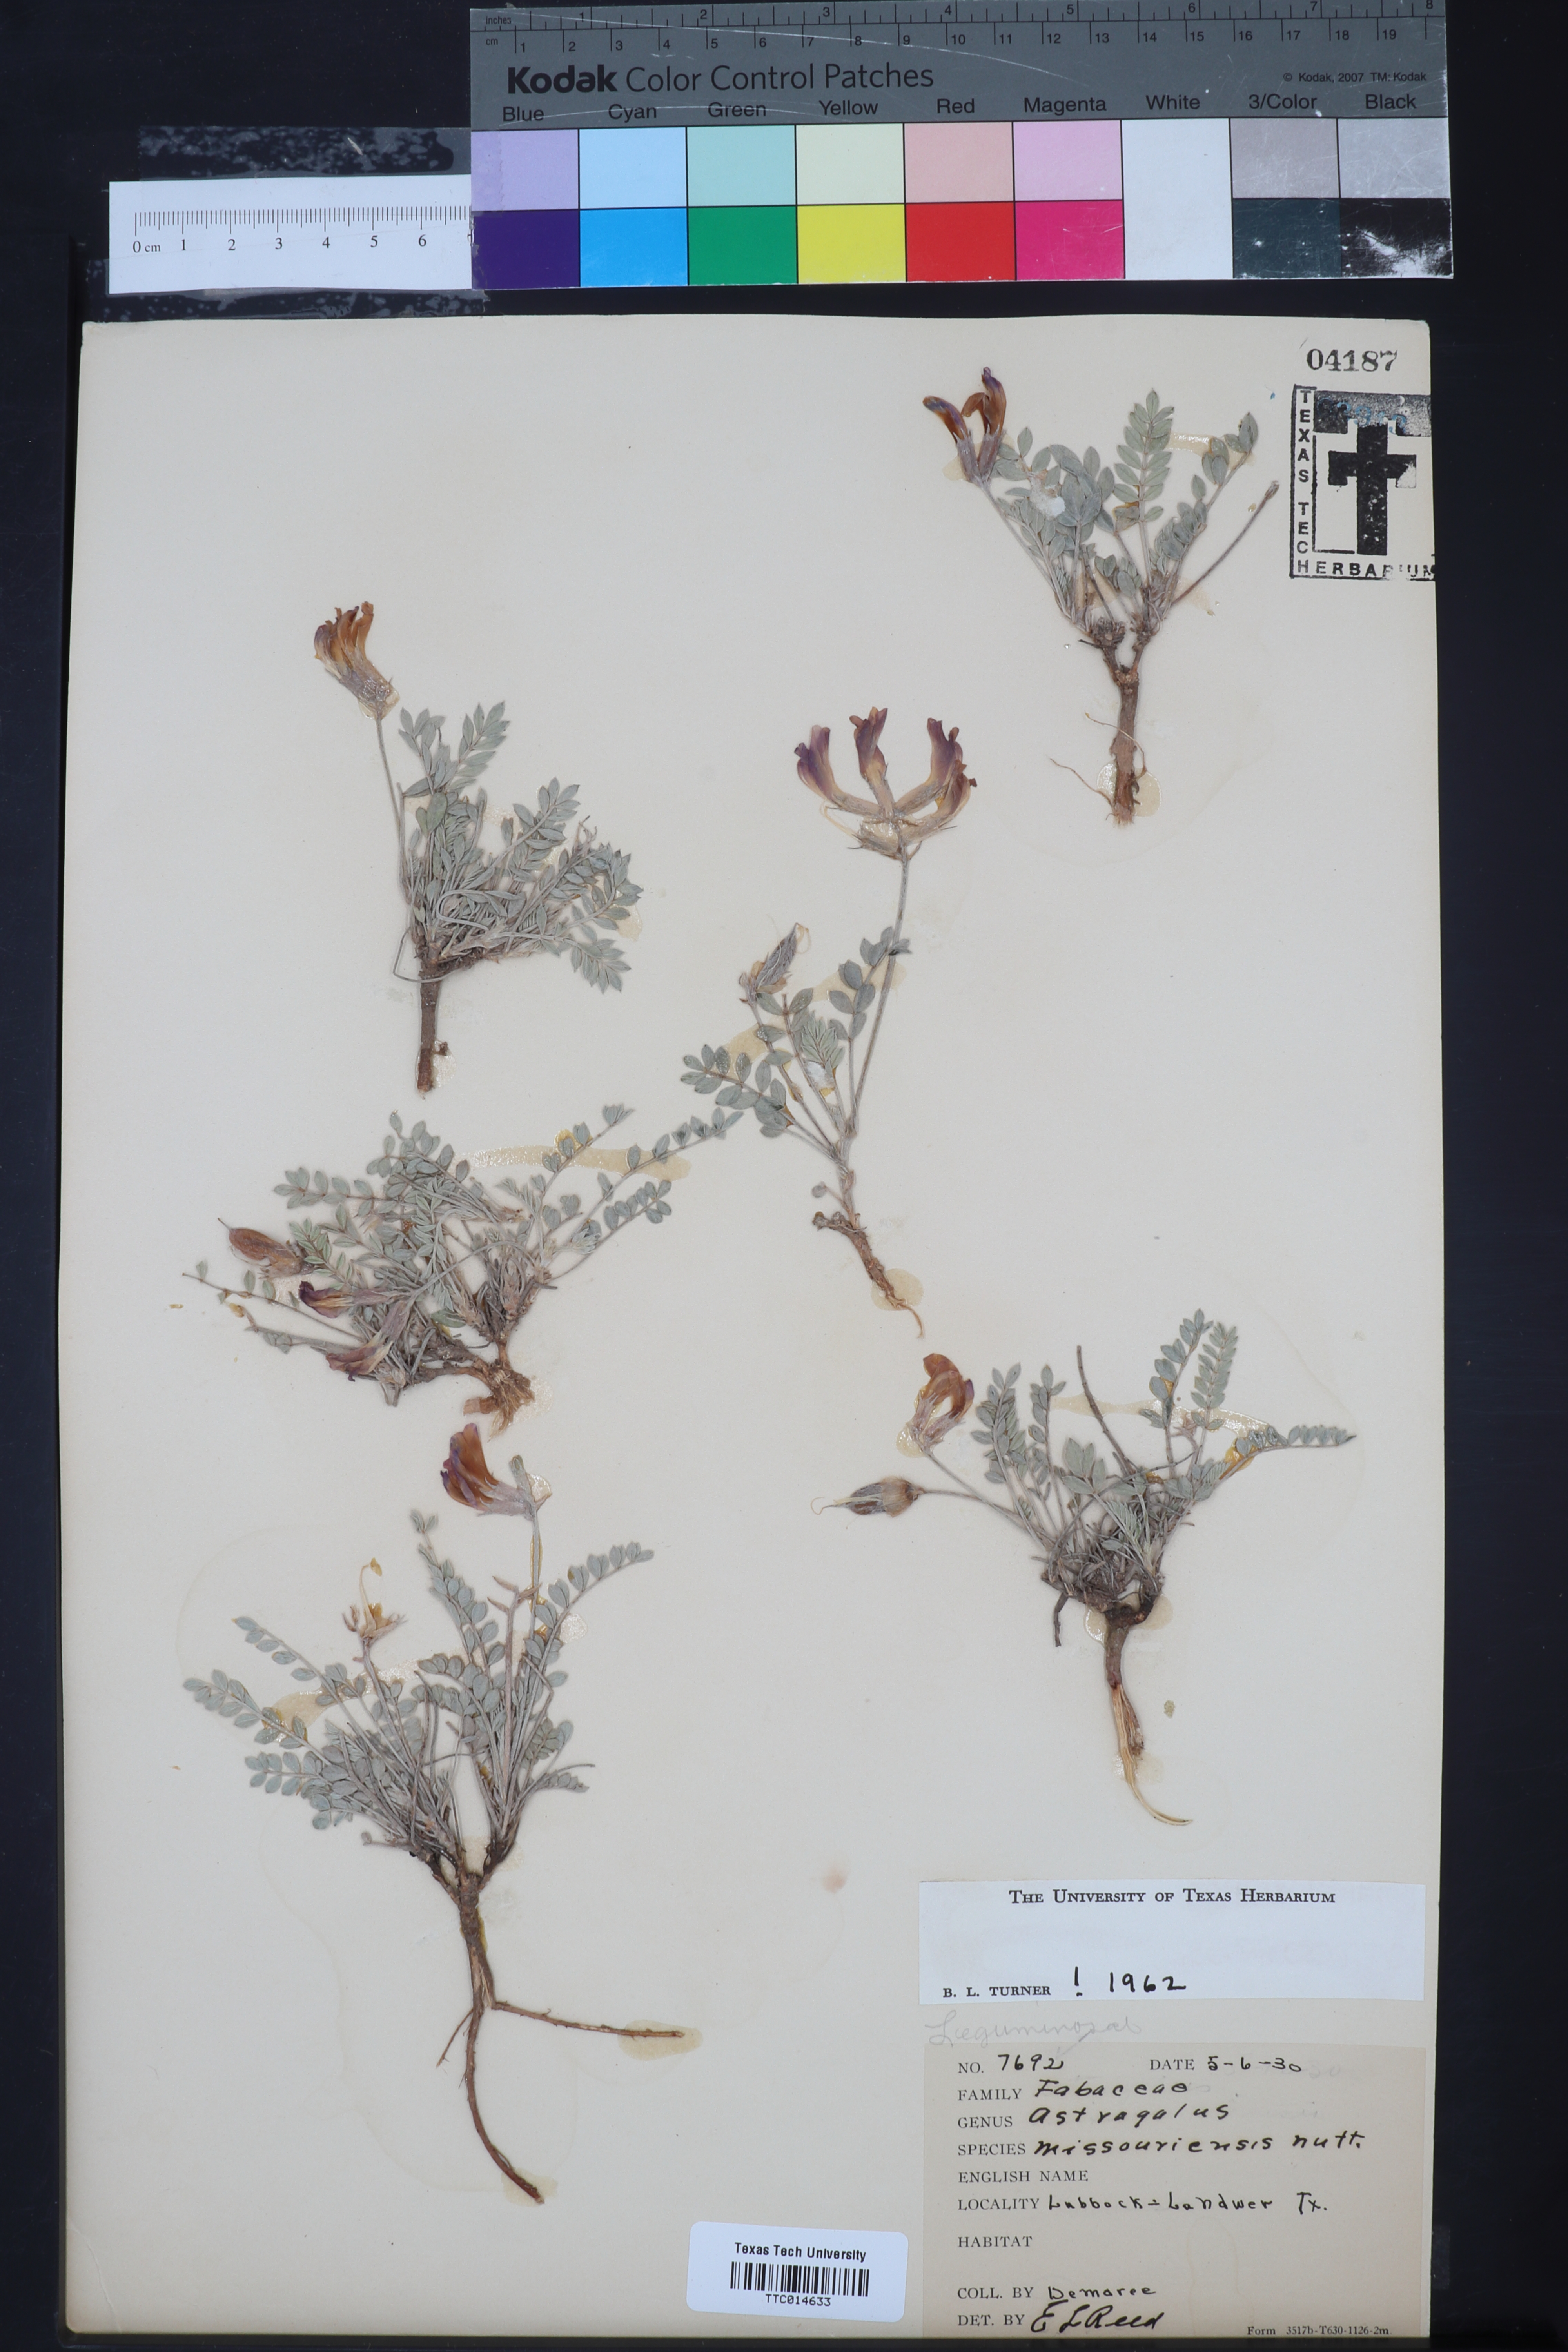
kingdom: Plantae
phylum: Tracheophyta
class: Magnoliopsida
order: Fabales
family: Fabaceae
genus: Astragalus
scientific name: Astragalus missouriensis
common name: Missouri milk-vetch
